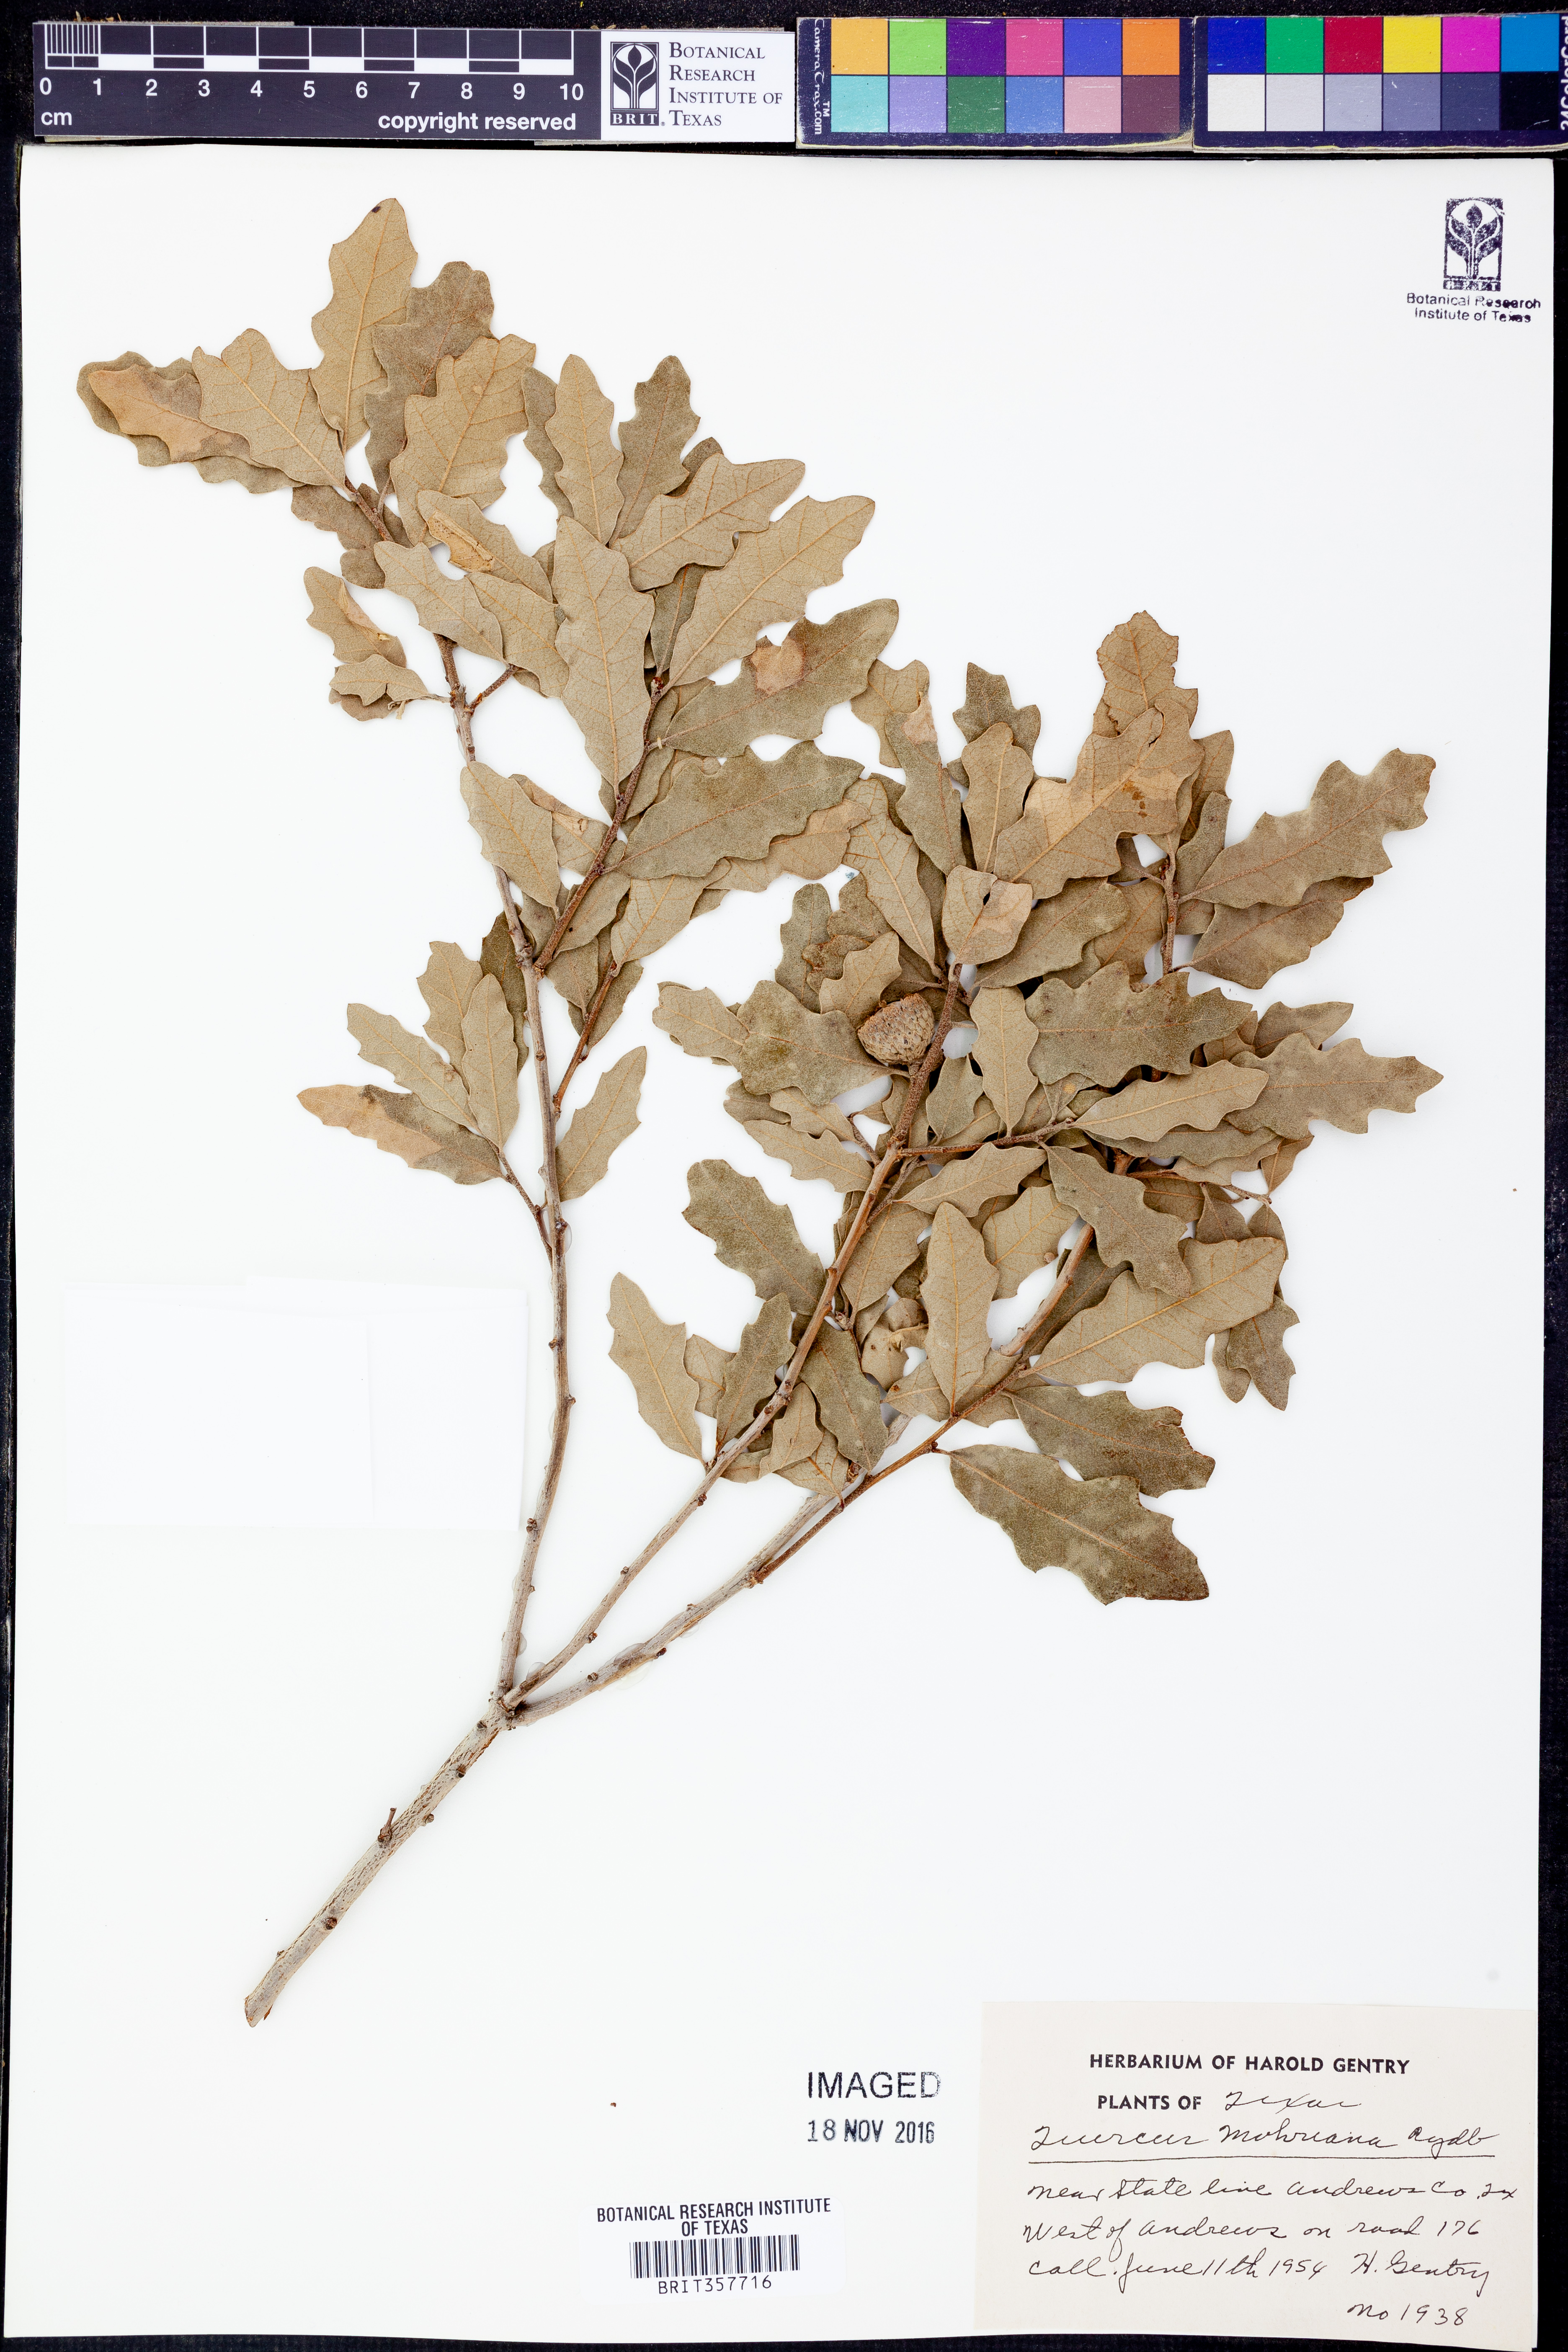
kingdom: Plantae
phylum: Tracheophyta
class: Magnoliopsida
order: Fagales
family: Fagaceae
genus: Quercus
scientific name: Quercus mohriana
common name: Mohr oak
